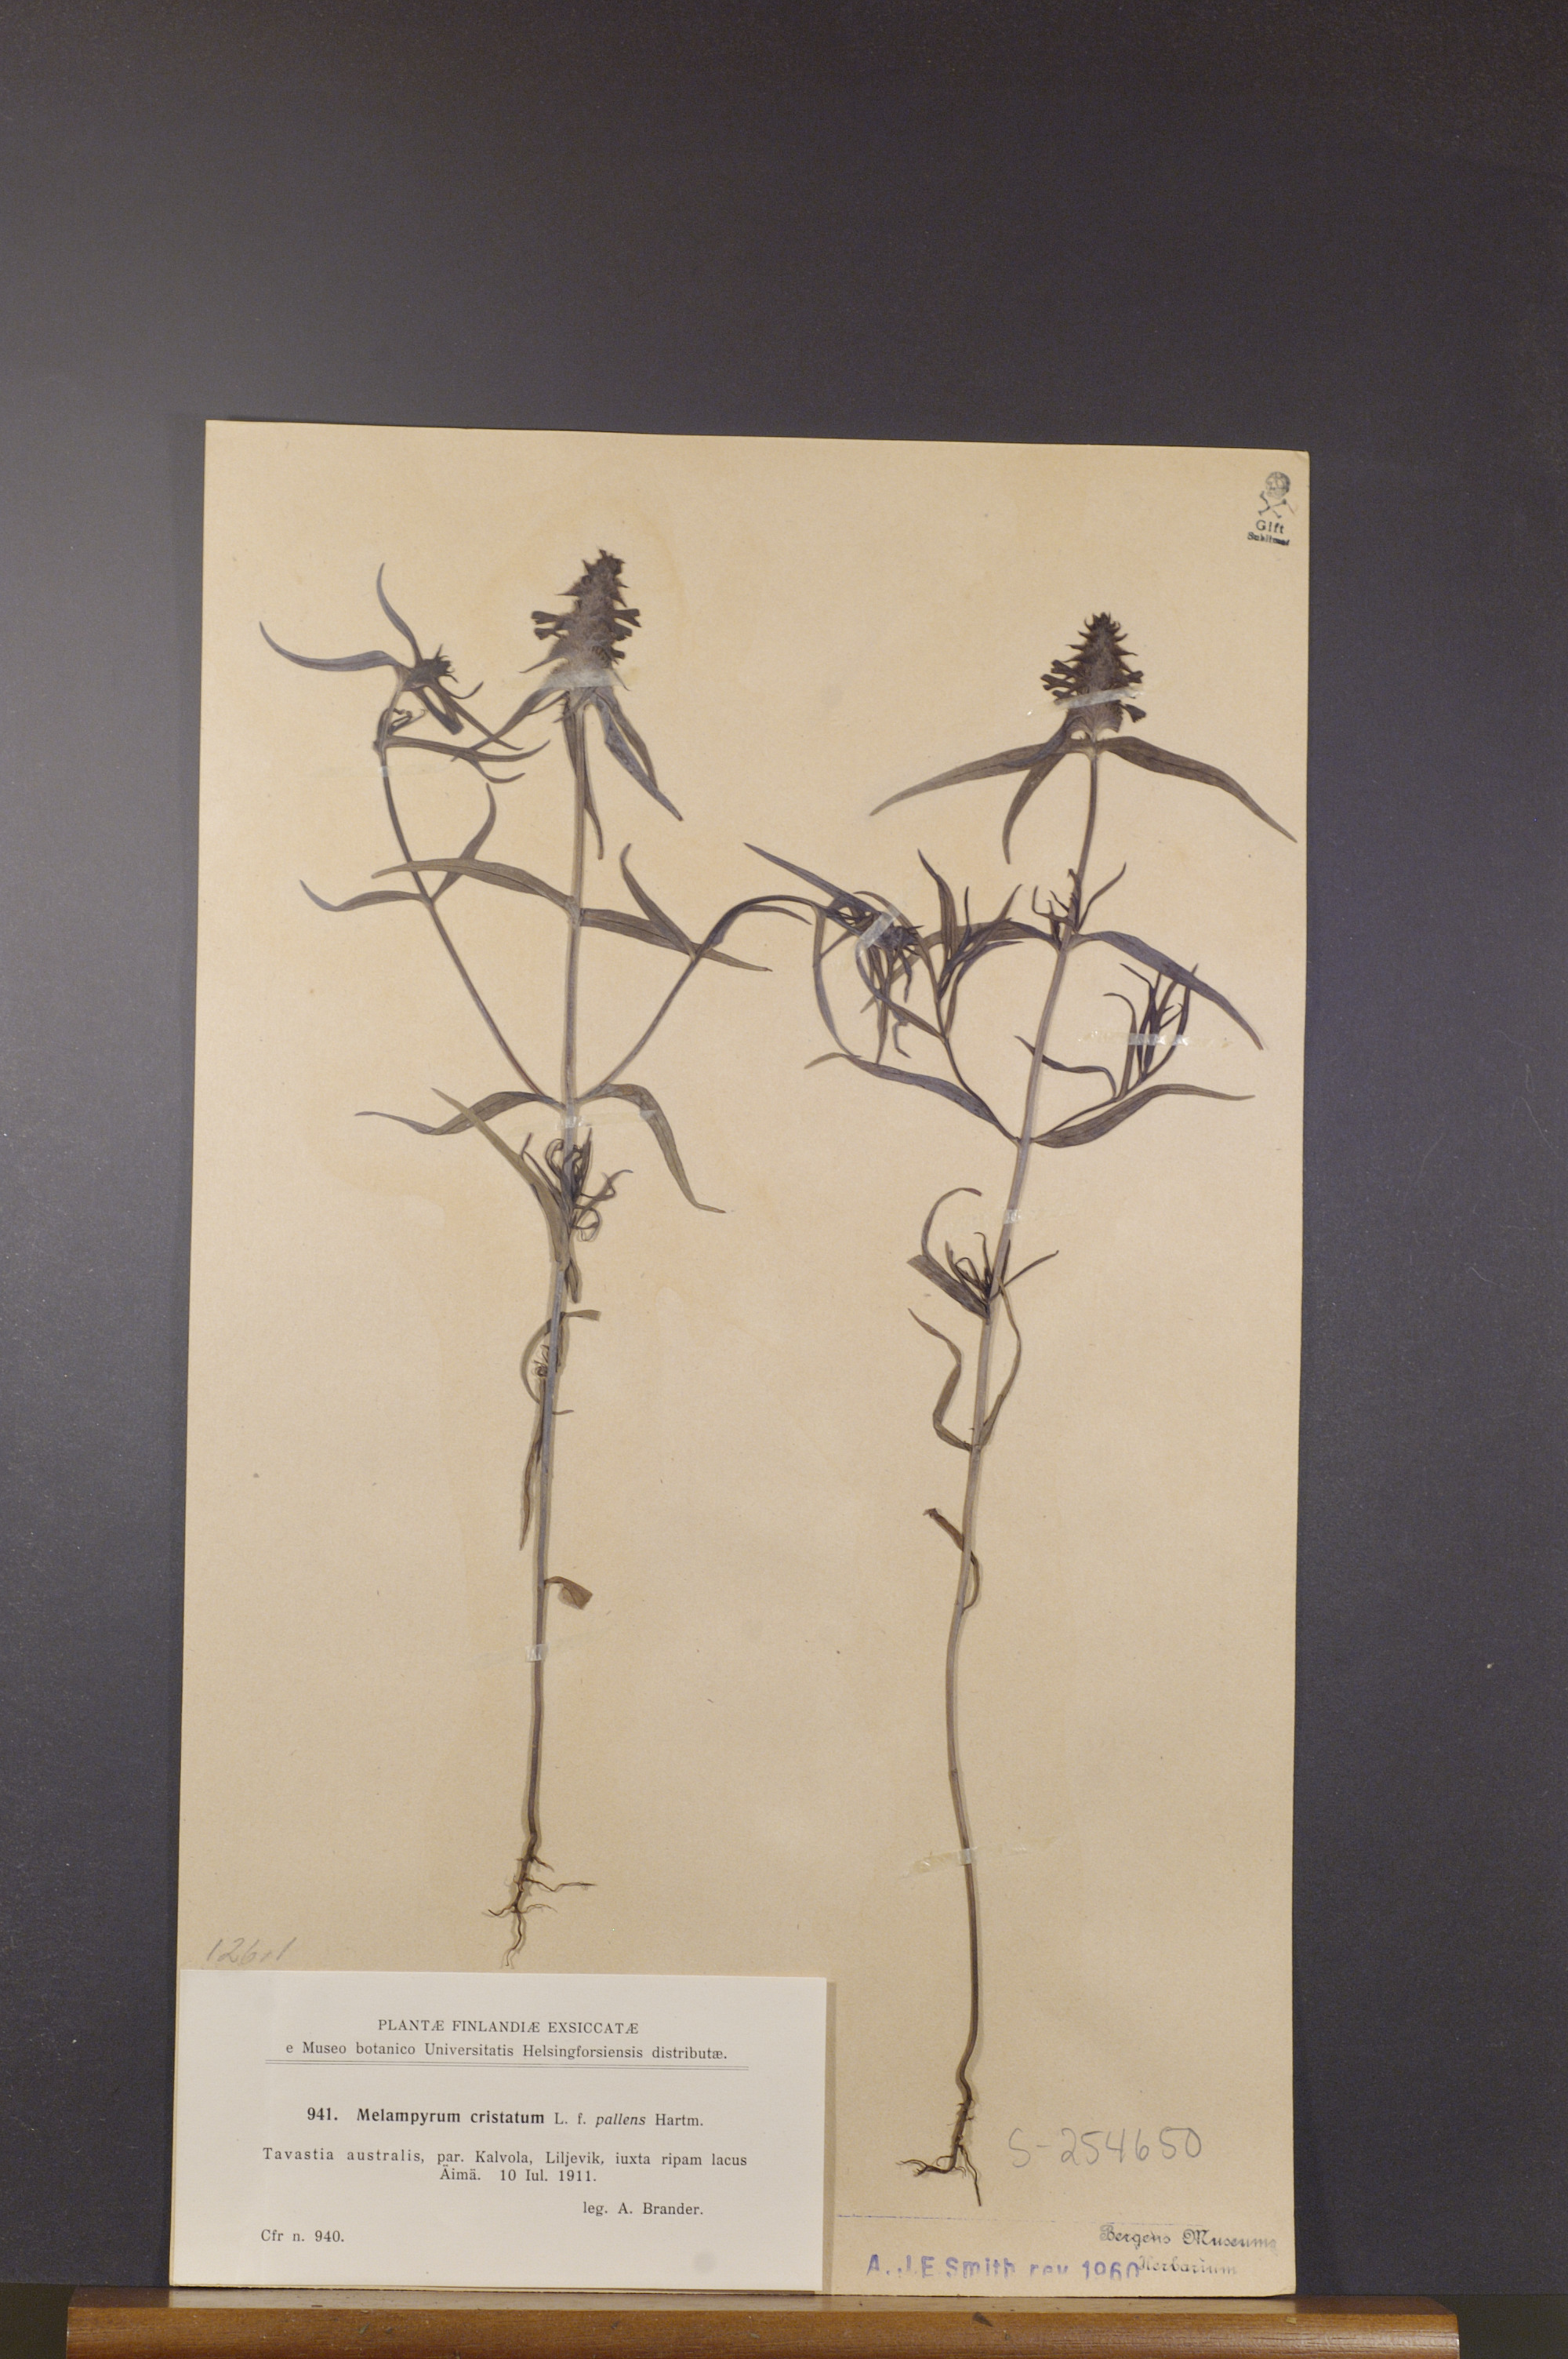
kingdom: Plantae
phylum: Tracheophyta
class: Magnoliopsida
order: Lamiales
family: Orobanchaceae
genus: Melampyrum
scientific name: Melampyrum cristatum
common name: Crested cow-wheat
